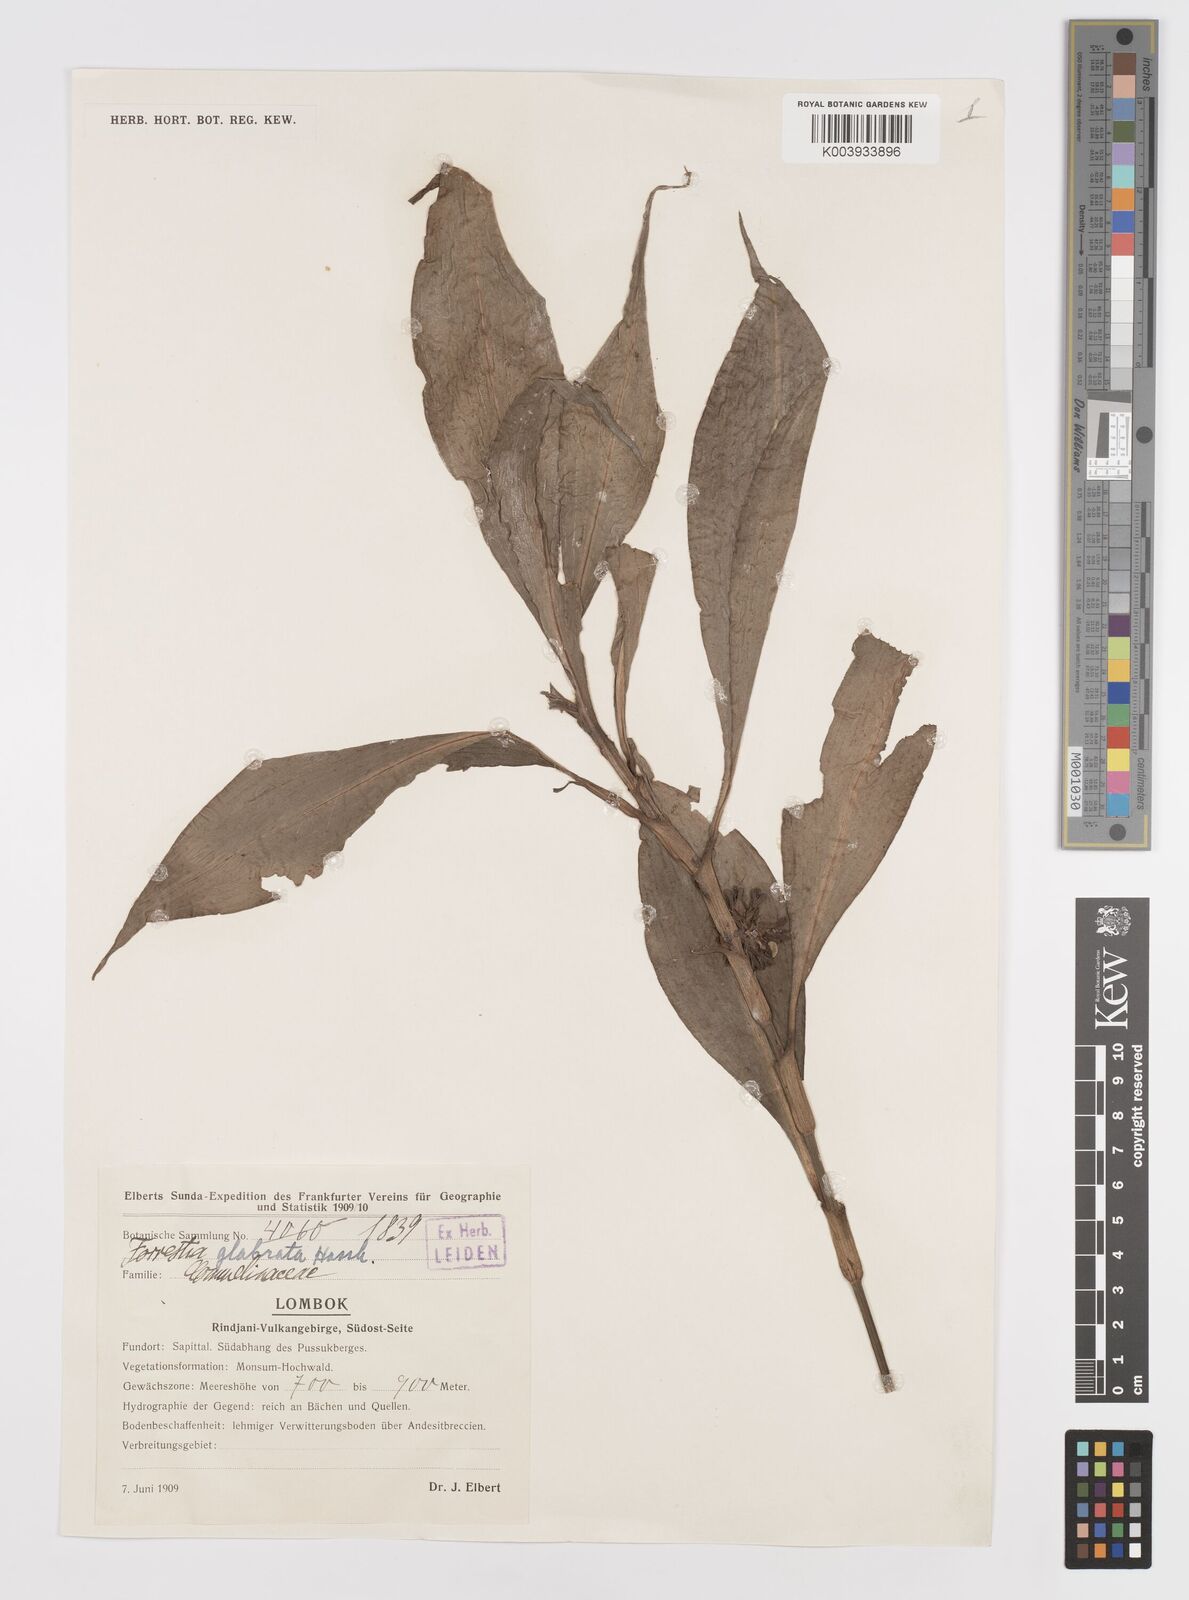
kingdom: Plantae
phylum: Tracheophyta
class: Liliopsida
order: Commelinales
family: Commelinaceae
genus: Amischotolype
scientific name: Amischotolype glabrata
